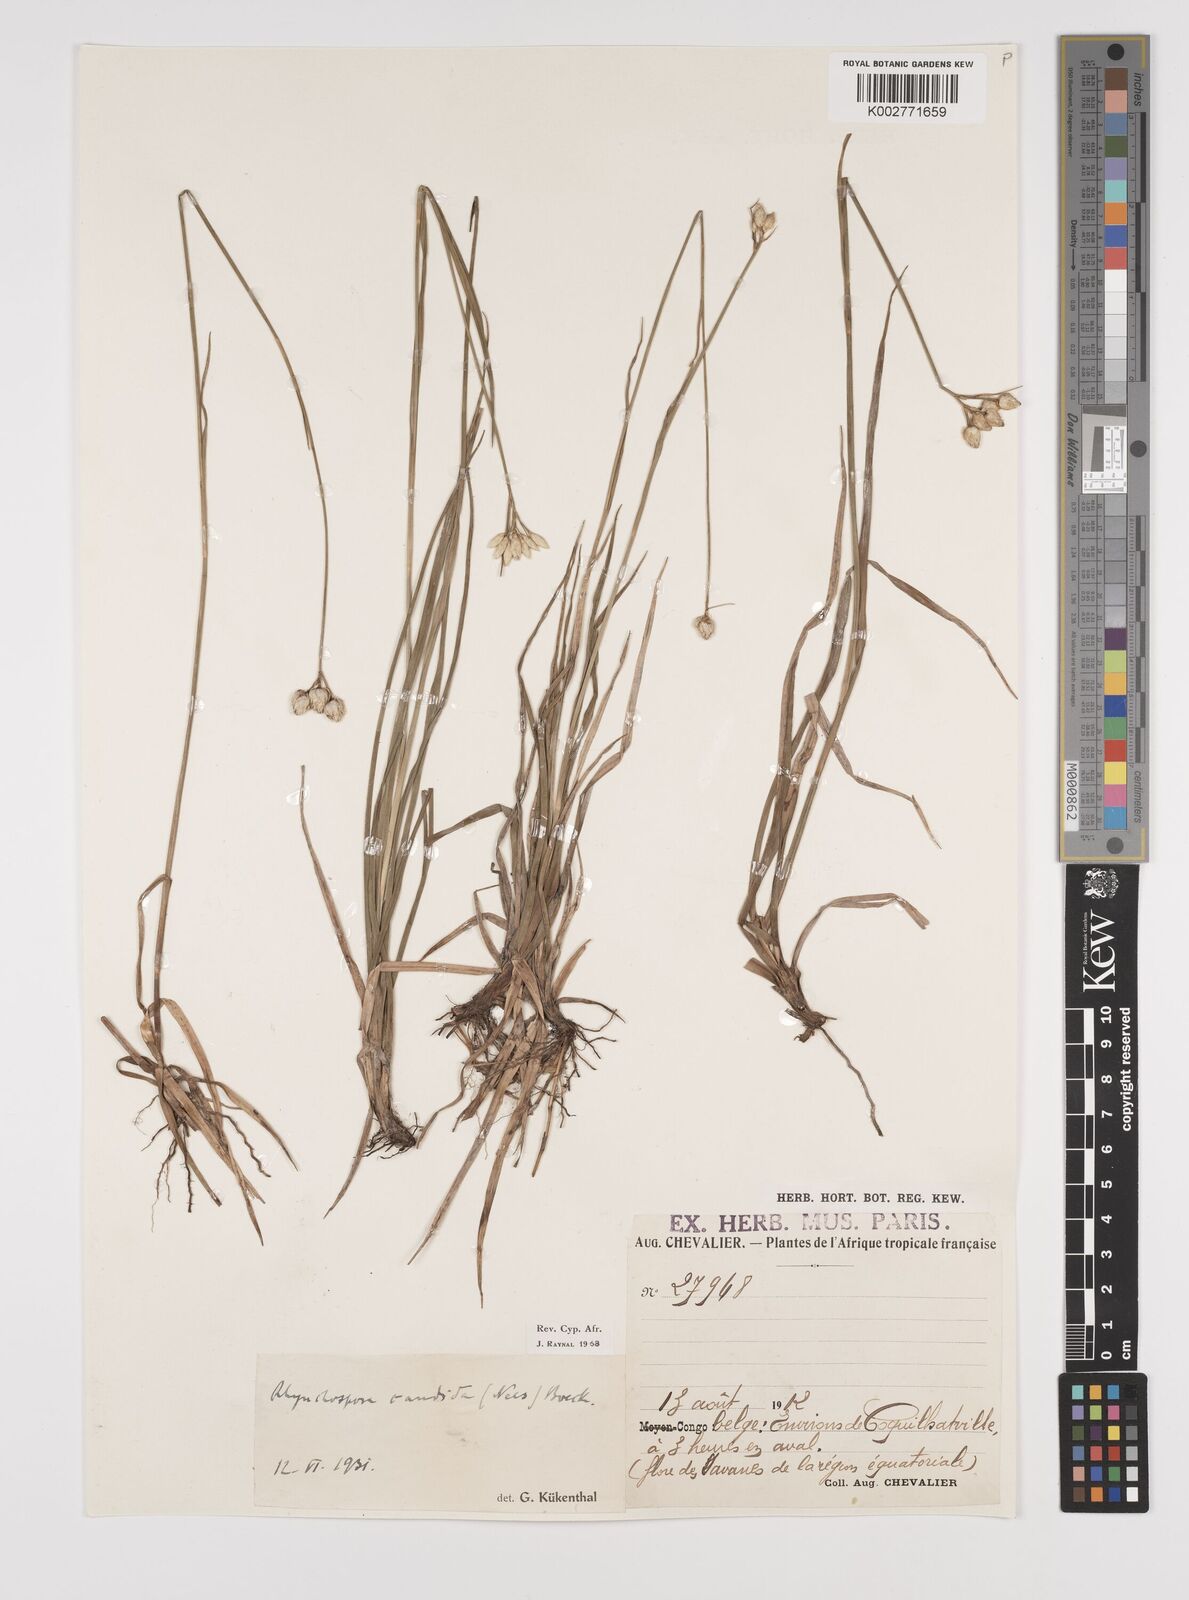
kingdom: Plantae
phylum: Tracheophyta
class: Liliopsida
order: Poales
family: Cyperaceae
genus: Rhynchospora
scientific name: Rhynchospora candida
